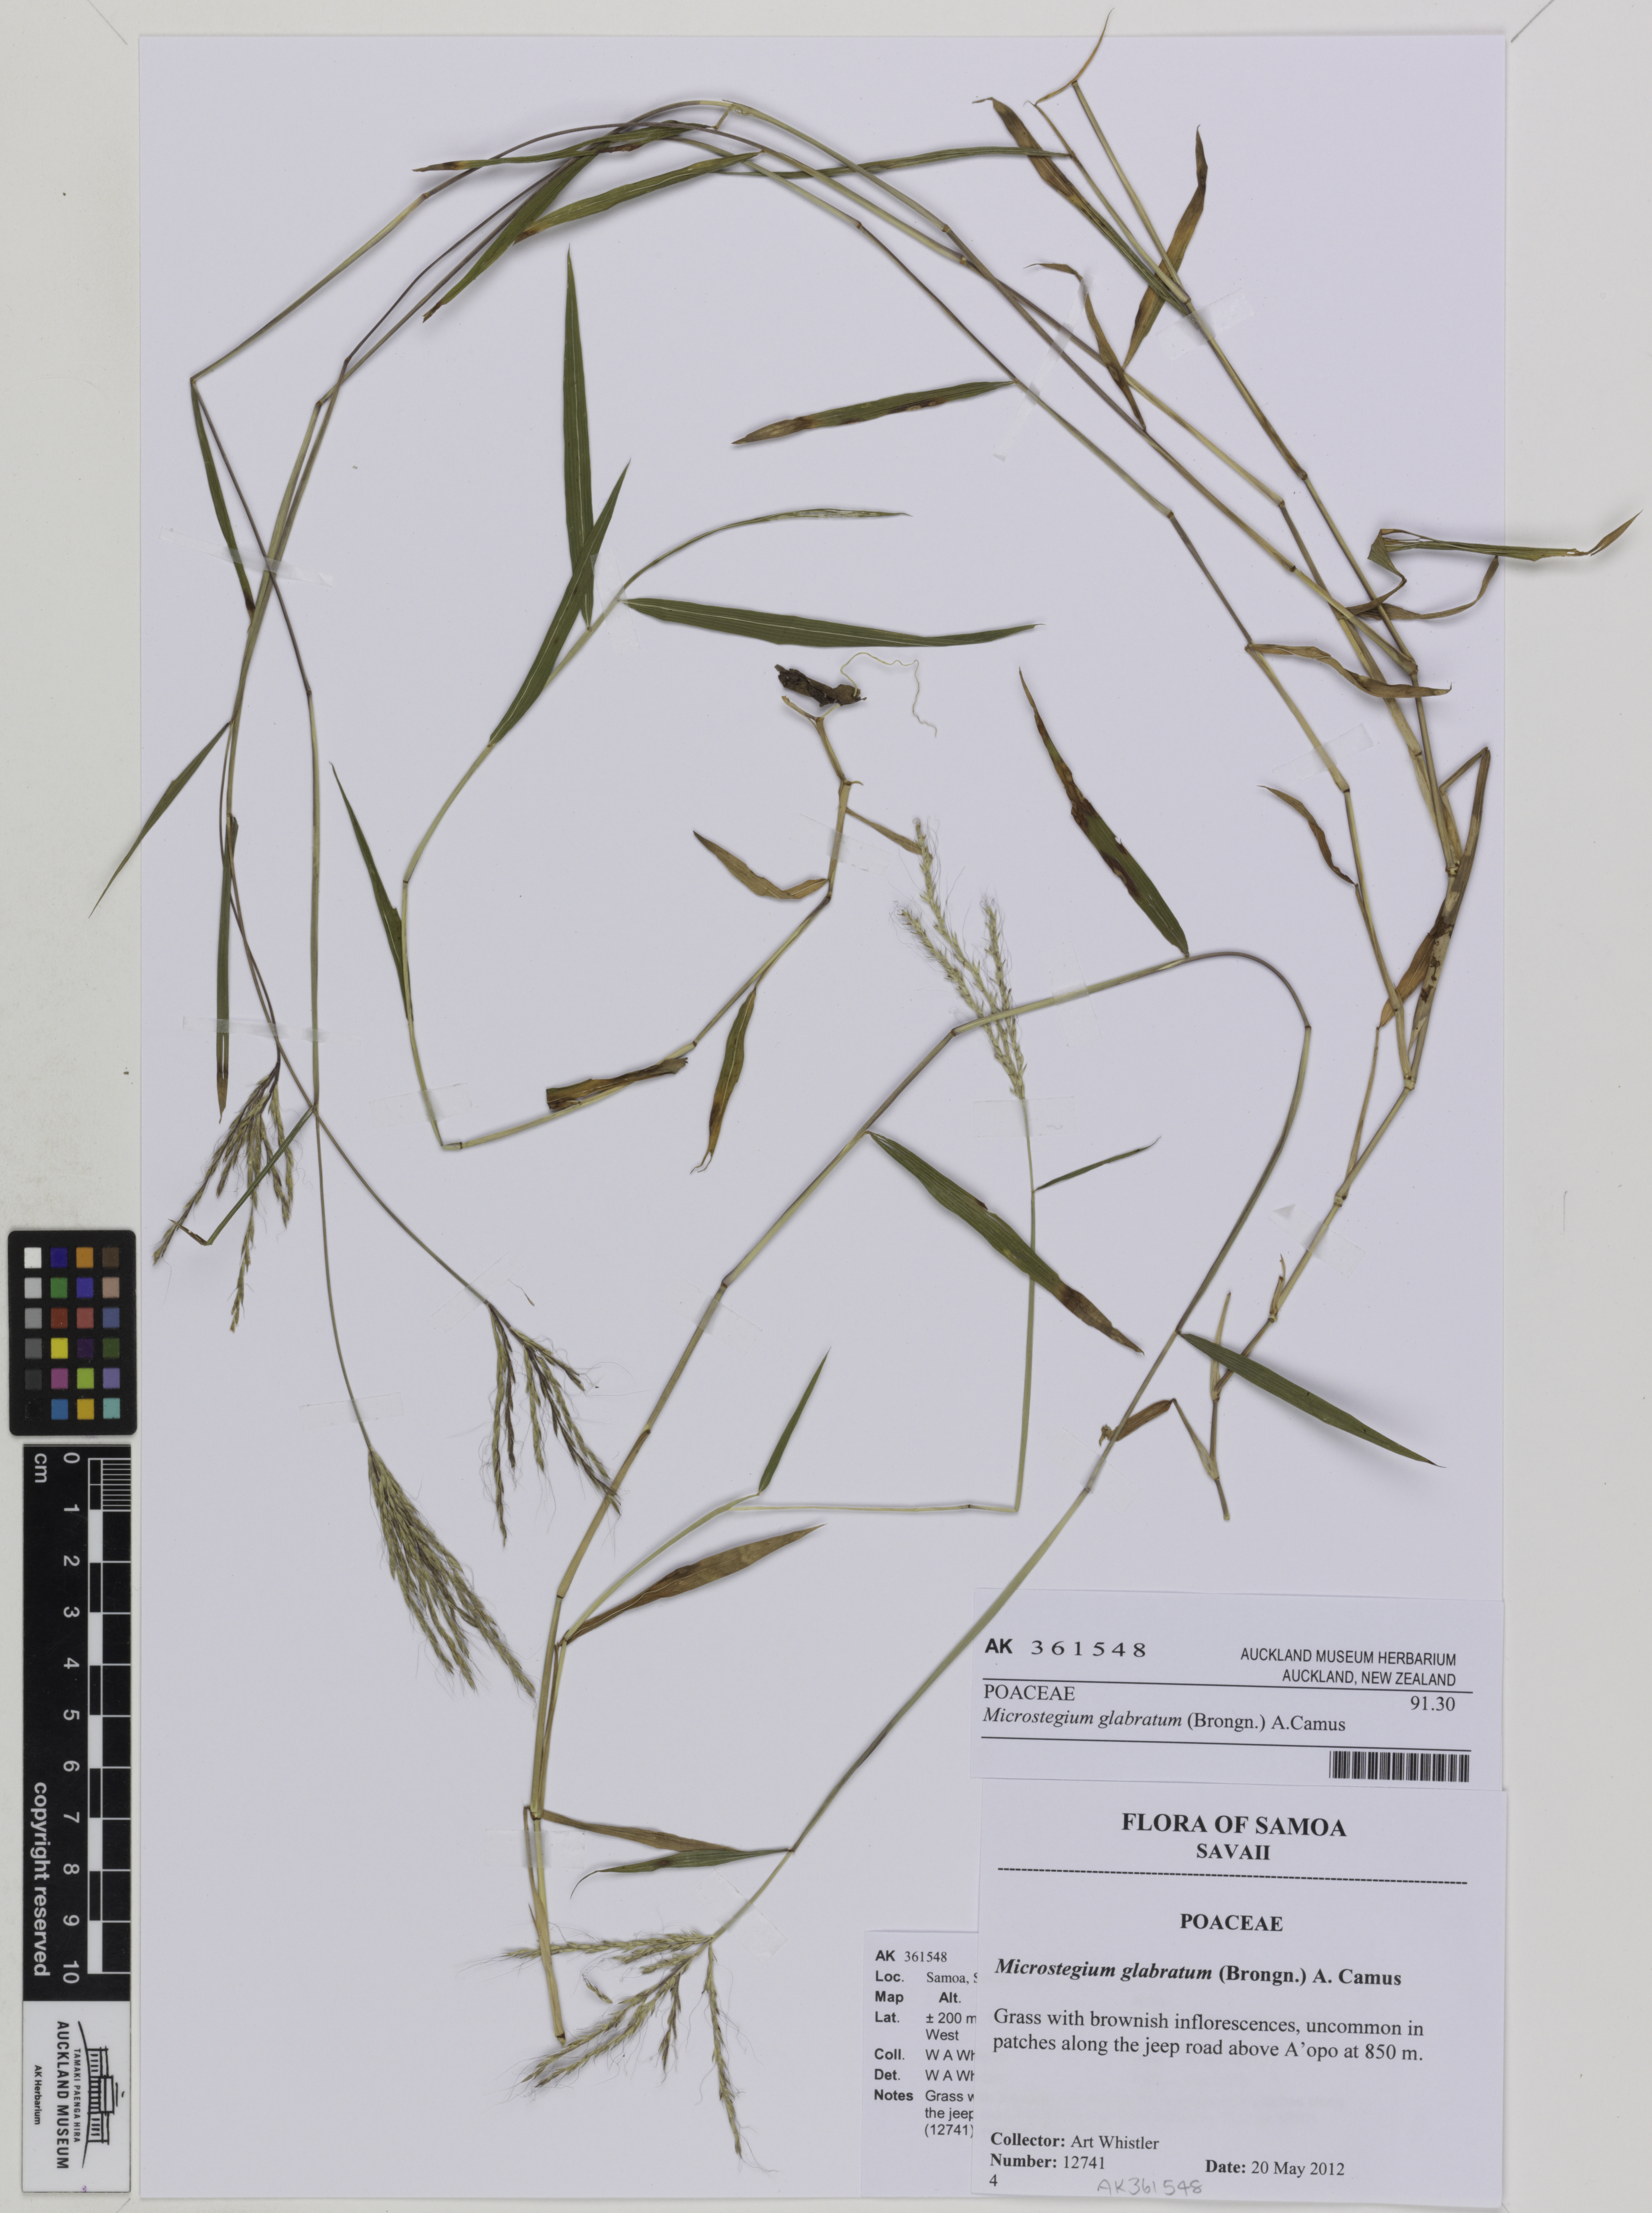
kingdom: Plantae
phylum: Tracheophyta
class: Liliopsida
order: Poales
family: Poaceae
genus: Microstegium
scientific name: Microstegium glabratum
